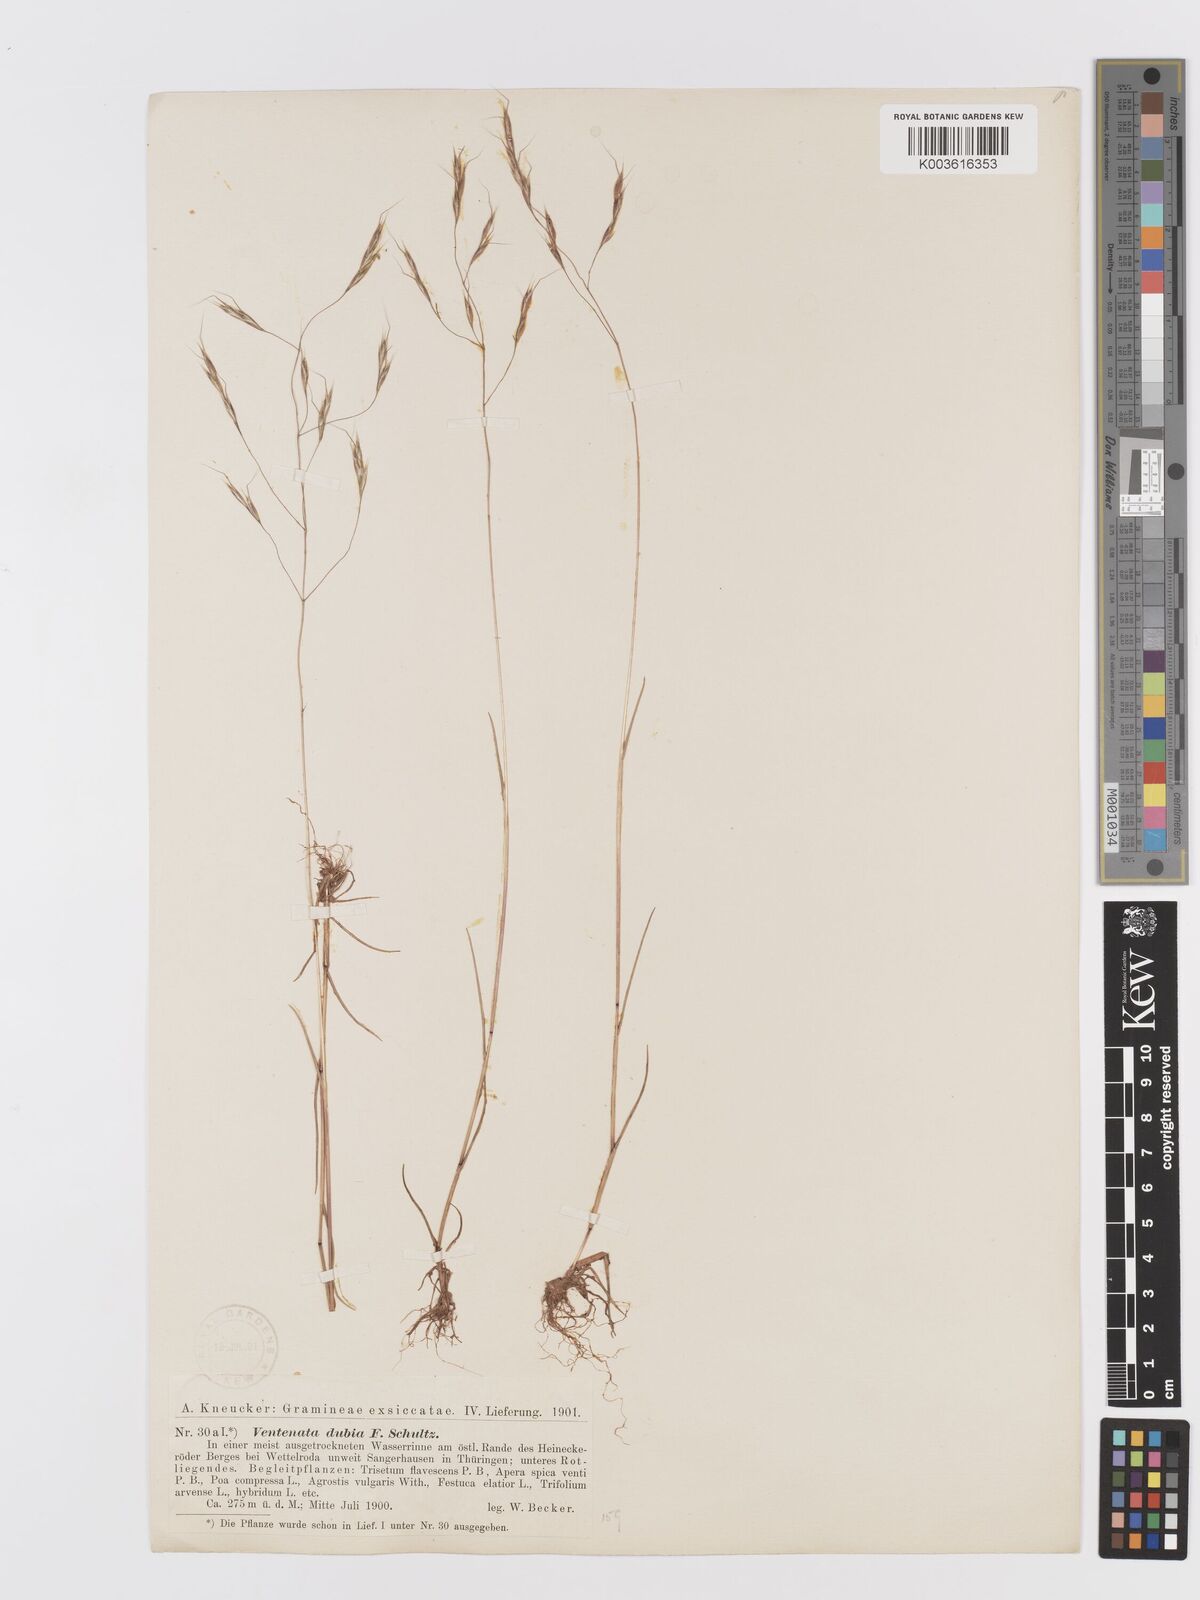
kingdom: Plantae
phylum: Tracheophyta
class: Liliopsida
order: Poales
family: Poaceae
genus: Ventenata
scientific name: Ventenata dubia
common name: North africa grass
